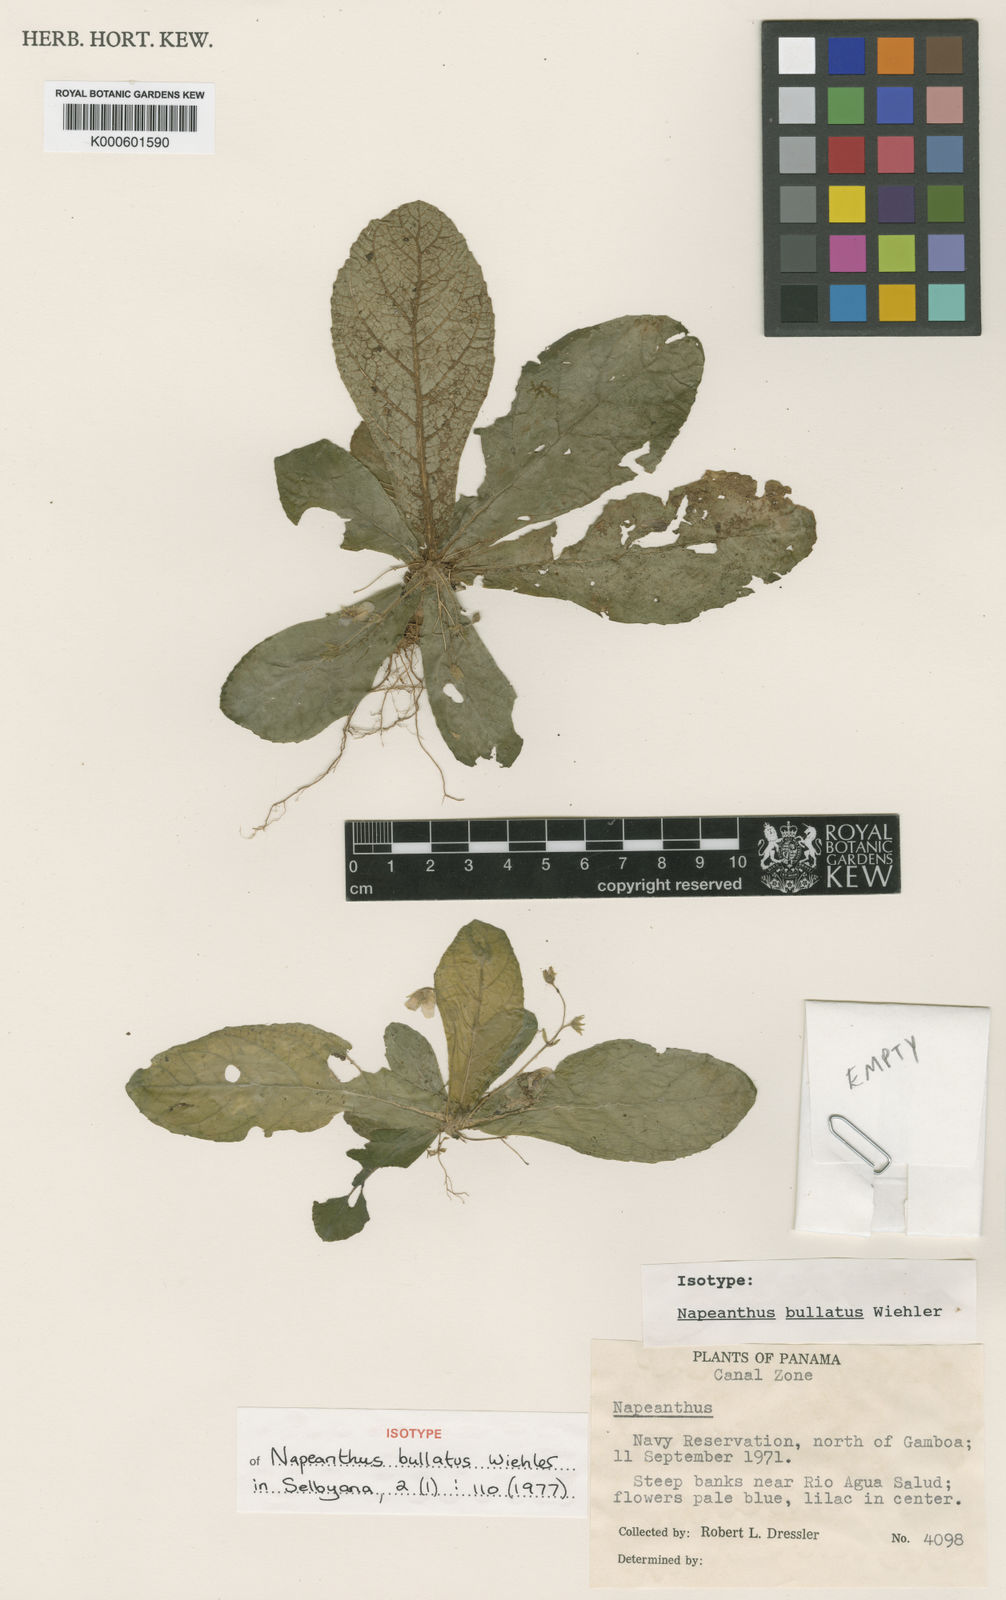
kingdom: Plantae
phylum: Tracheophyta
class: Magnoliopsida
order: Lamiales
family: Gesneriaceae
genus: Napeanthus
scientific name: Napeanthus apodemus
